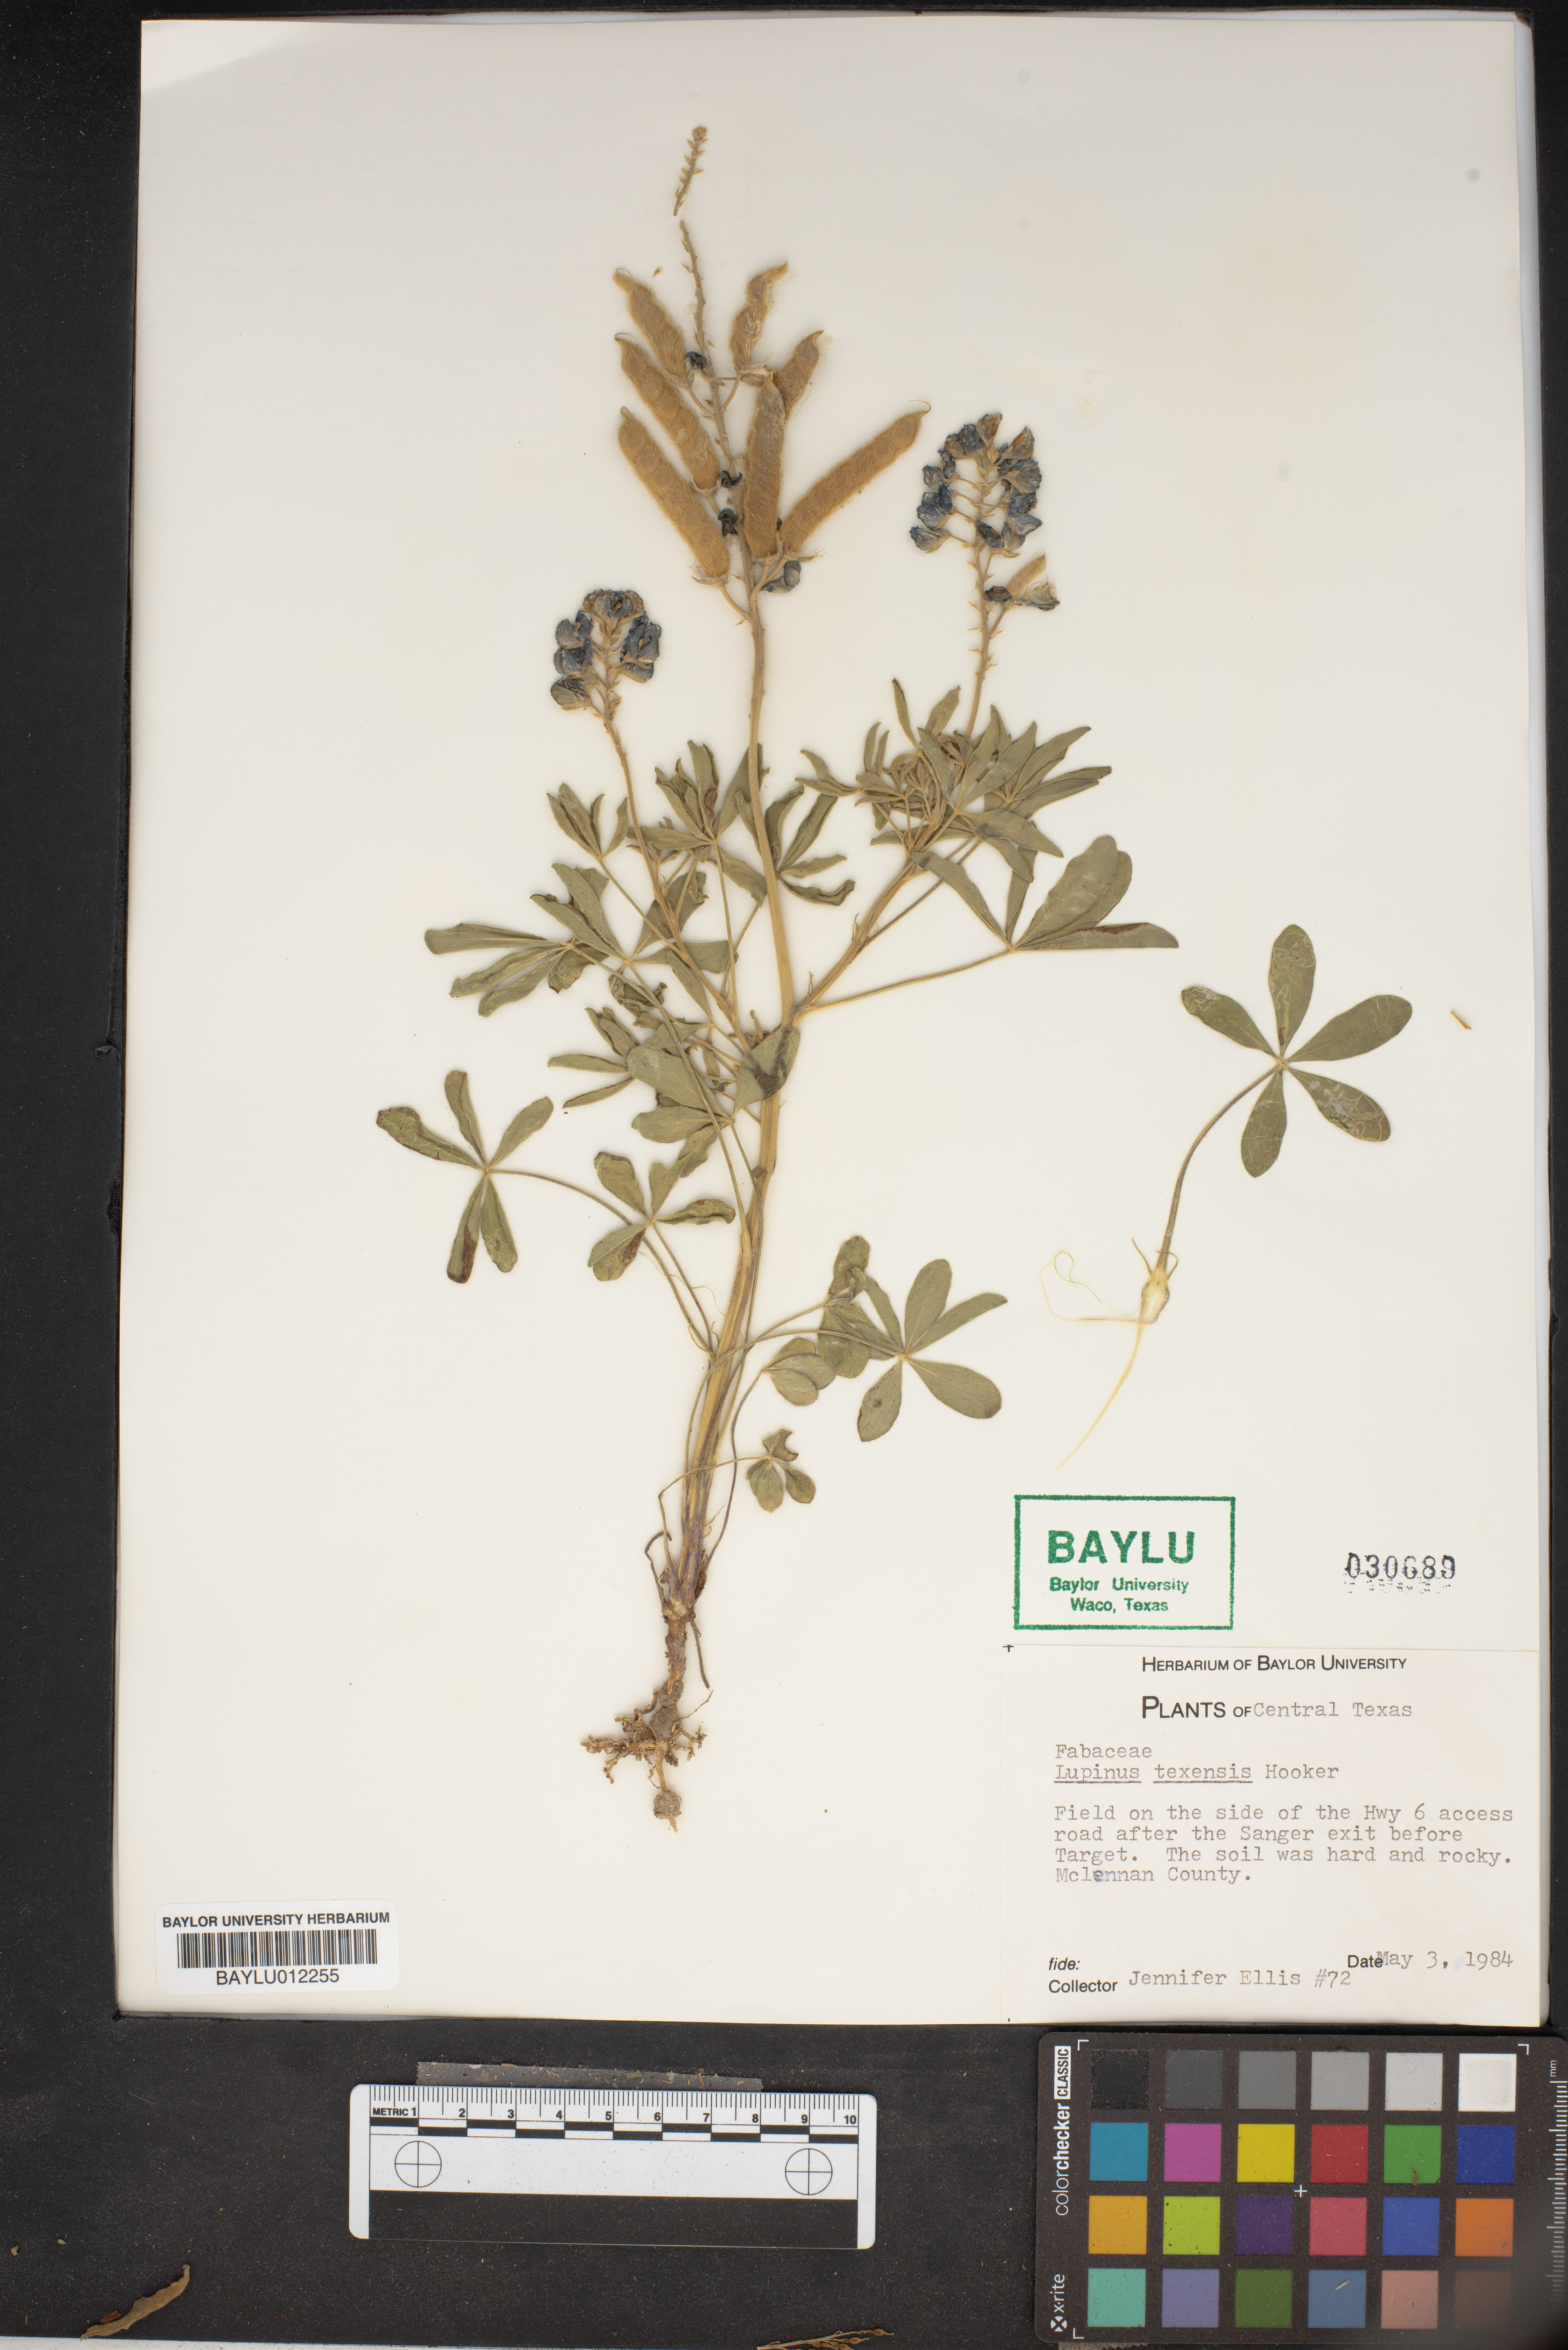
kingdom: Plantae
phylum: Tracheophyta
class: Magnoliopsida
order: Fabales
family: Fabaceae
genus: Lupinus
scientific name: Lupinus texensis
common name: Texas bluebonnet
